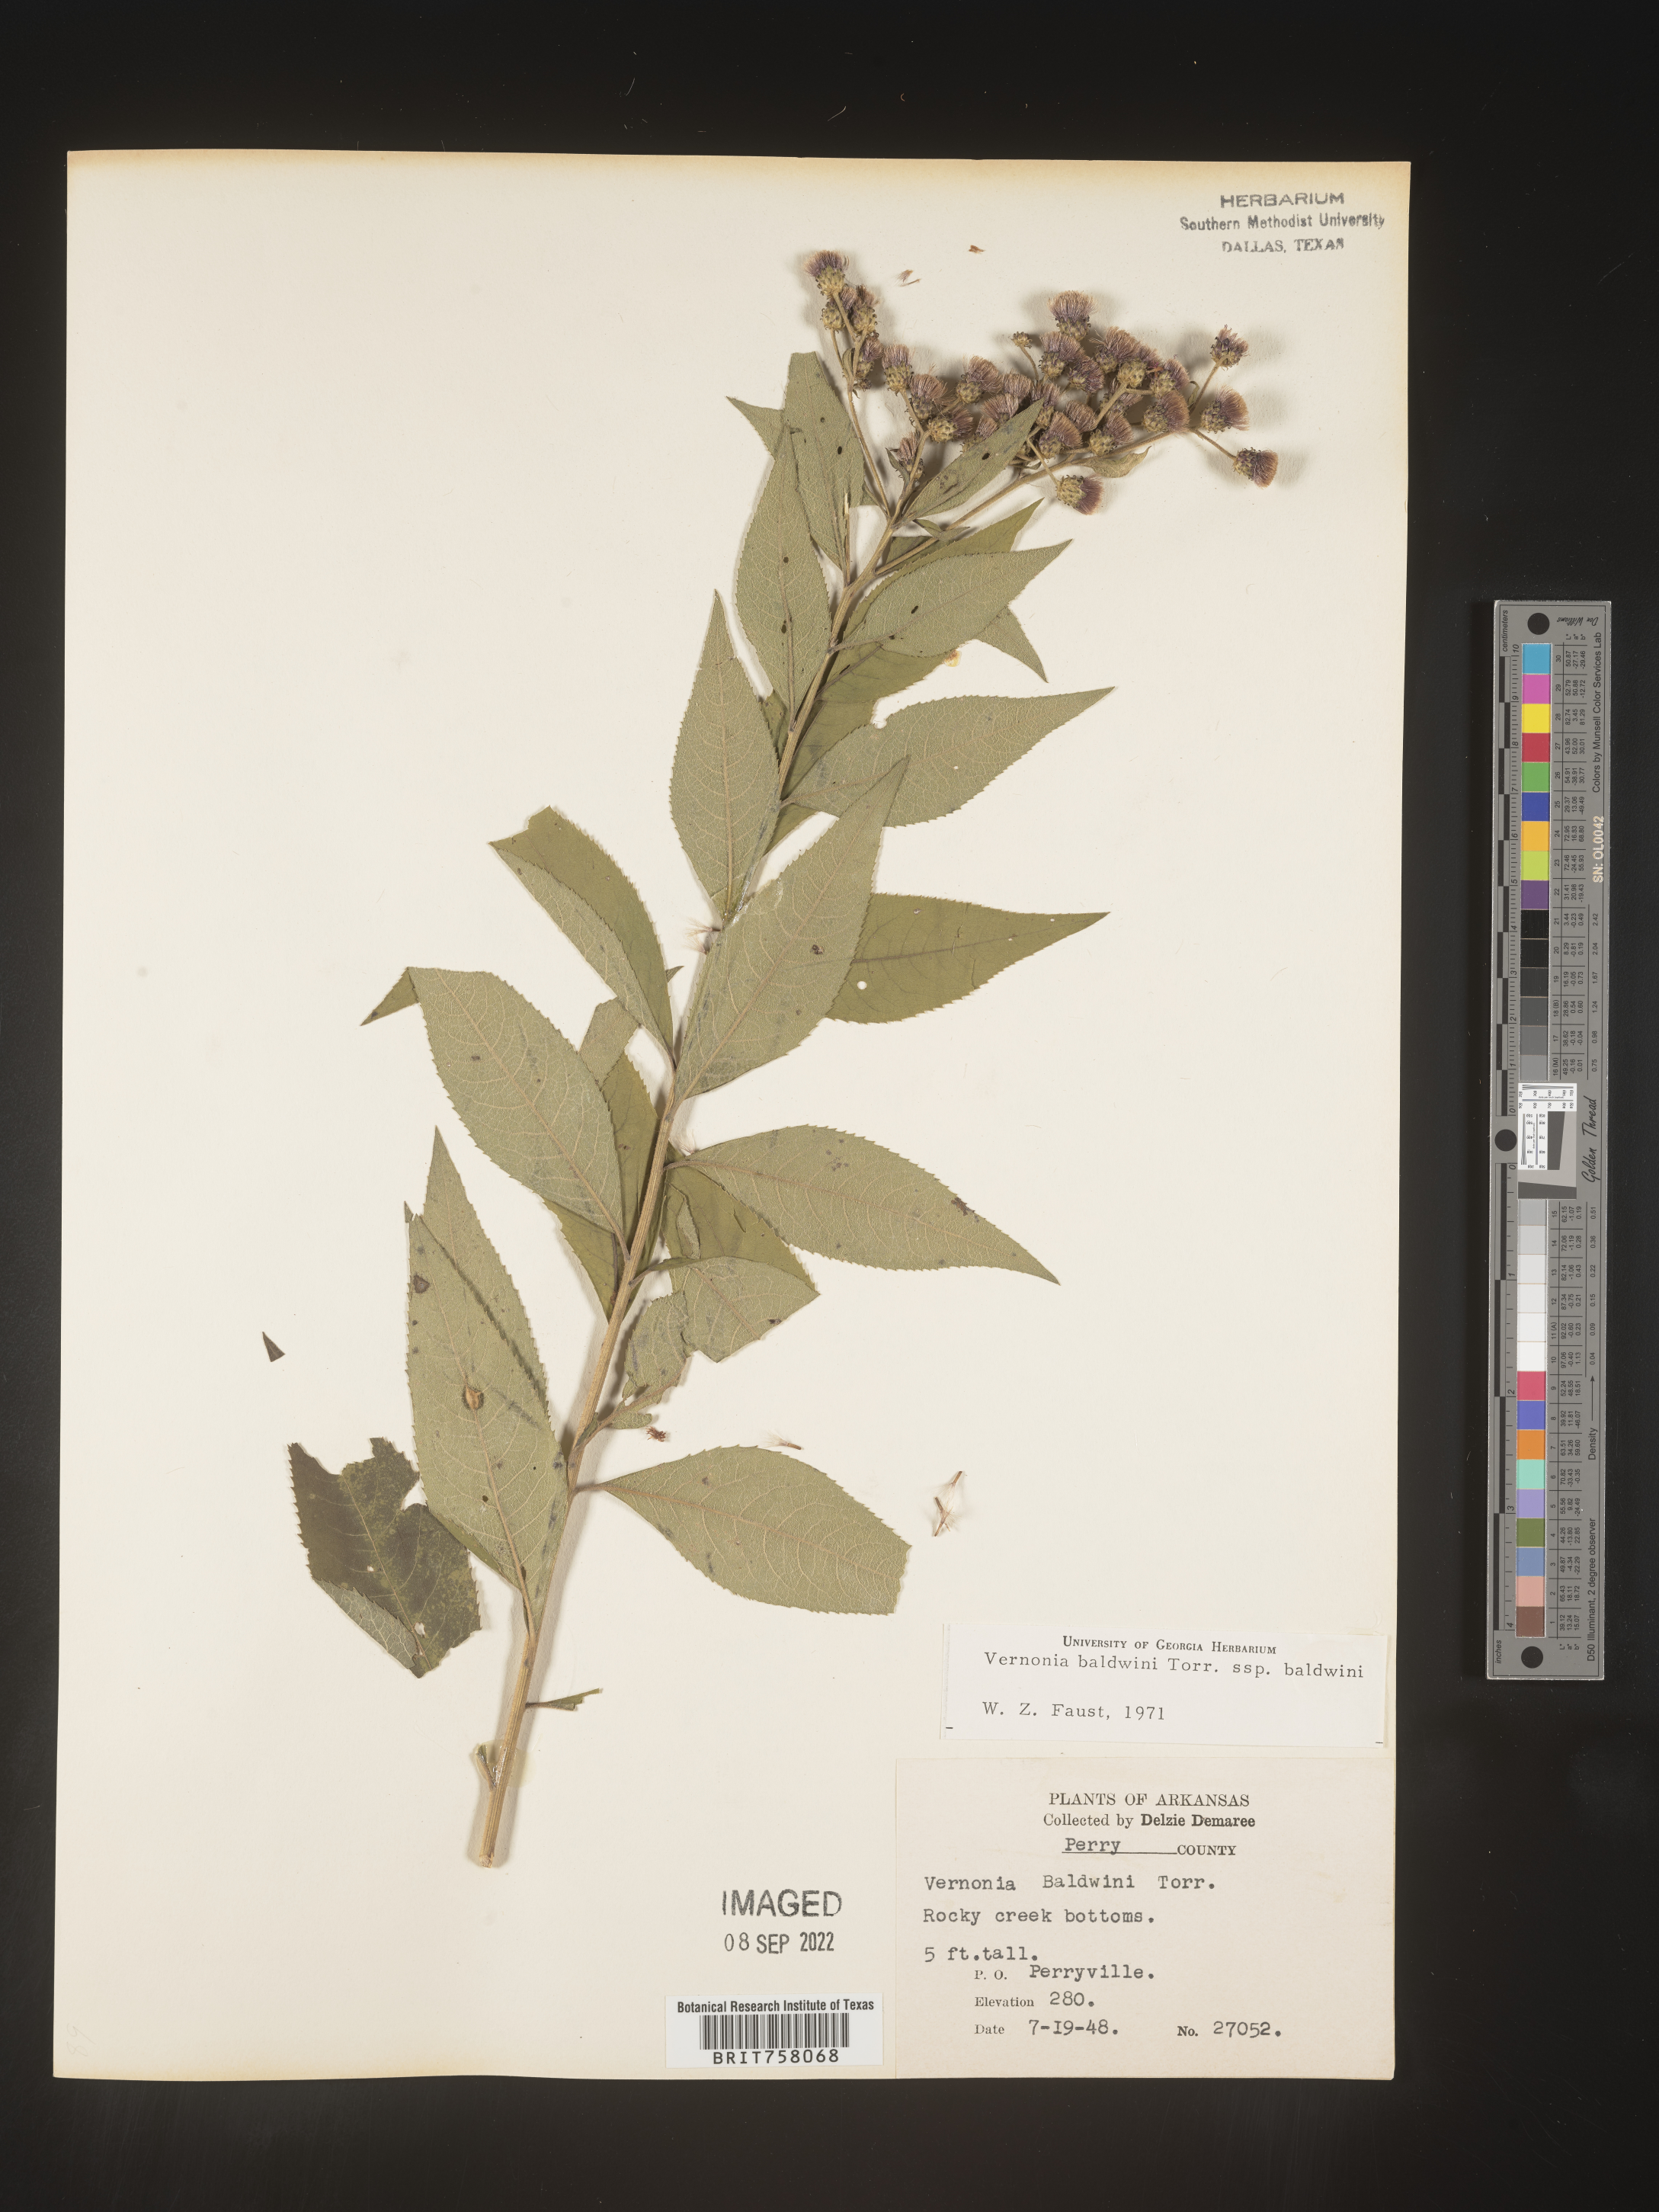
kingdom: Plantae
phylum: Tracheophyta
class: Magnoliopsida
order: Asterales
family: Asteraceae
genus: Vernonia
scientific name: Vernonia baldwinii
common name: Western ironweed
